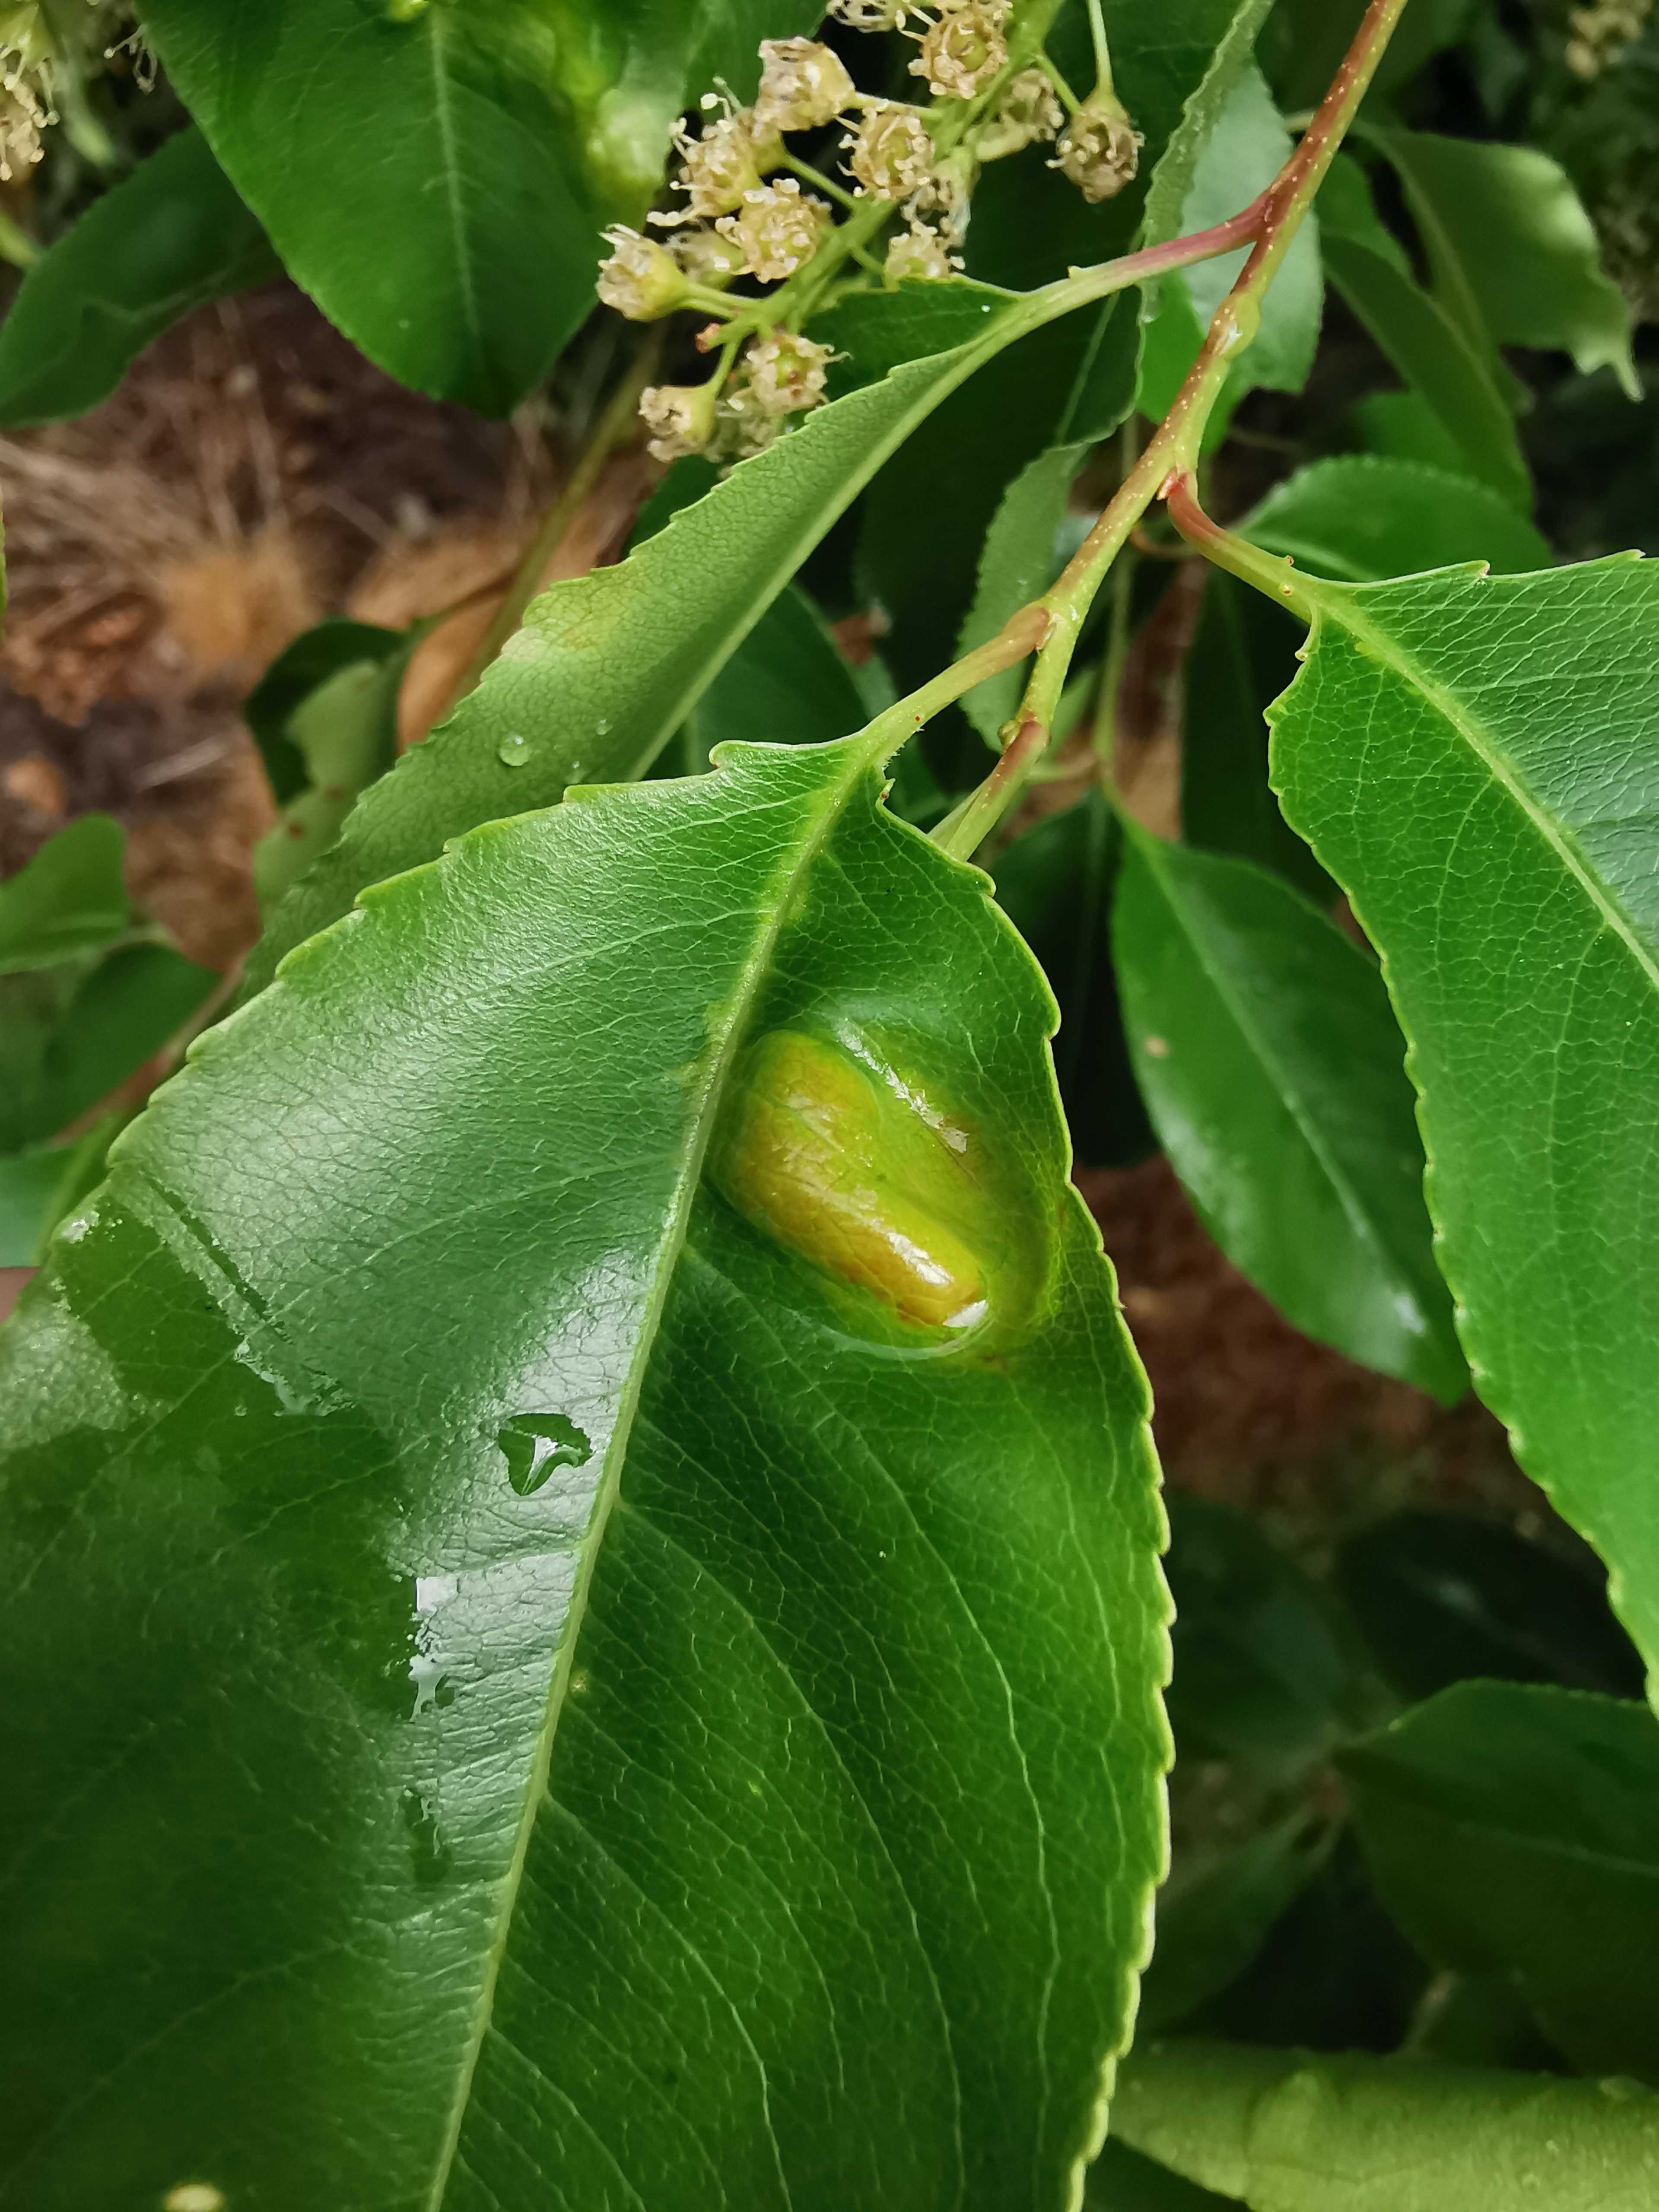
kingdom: Fungi
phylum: Ascomycota
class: Taphrinomycetes
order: Taphrinales
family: Taphrinaceae
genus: Taphrina
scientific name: Taphrina farlowii
